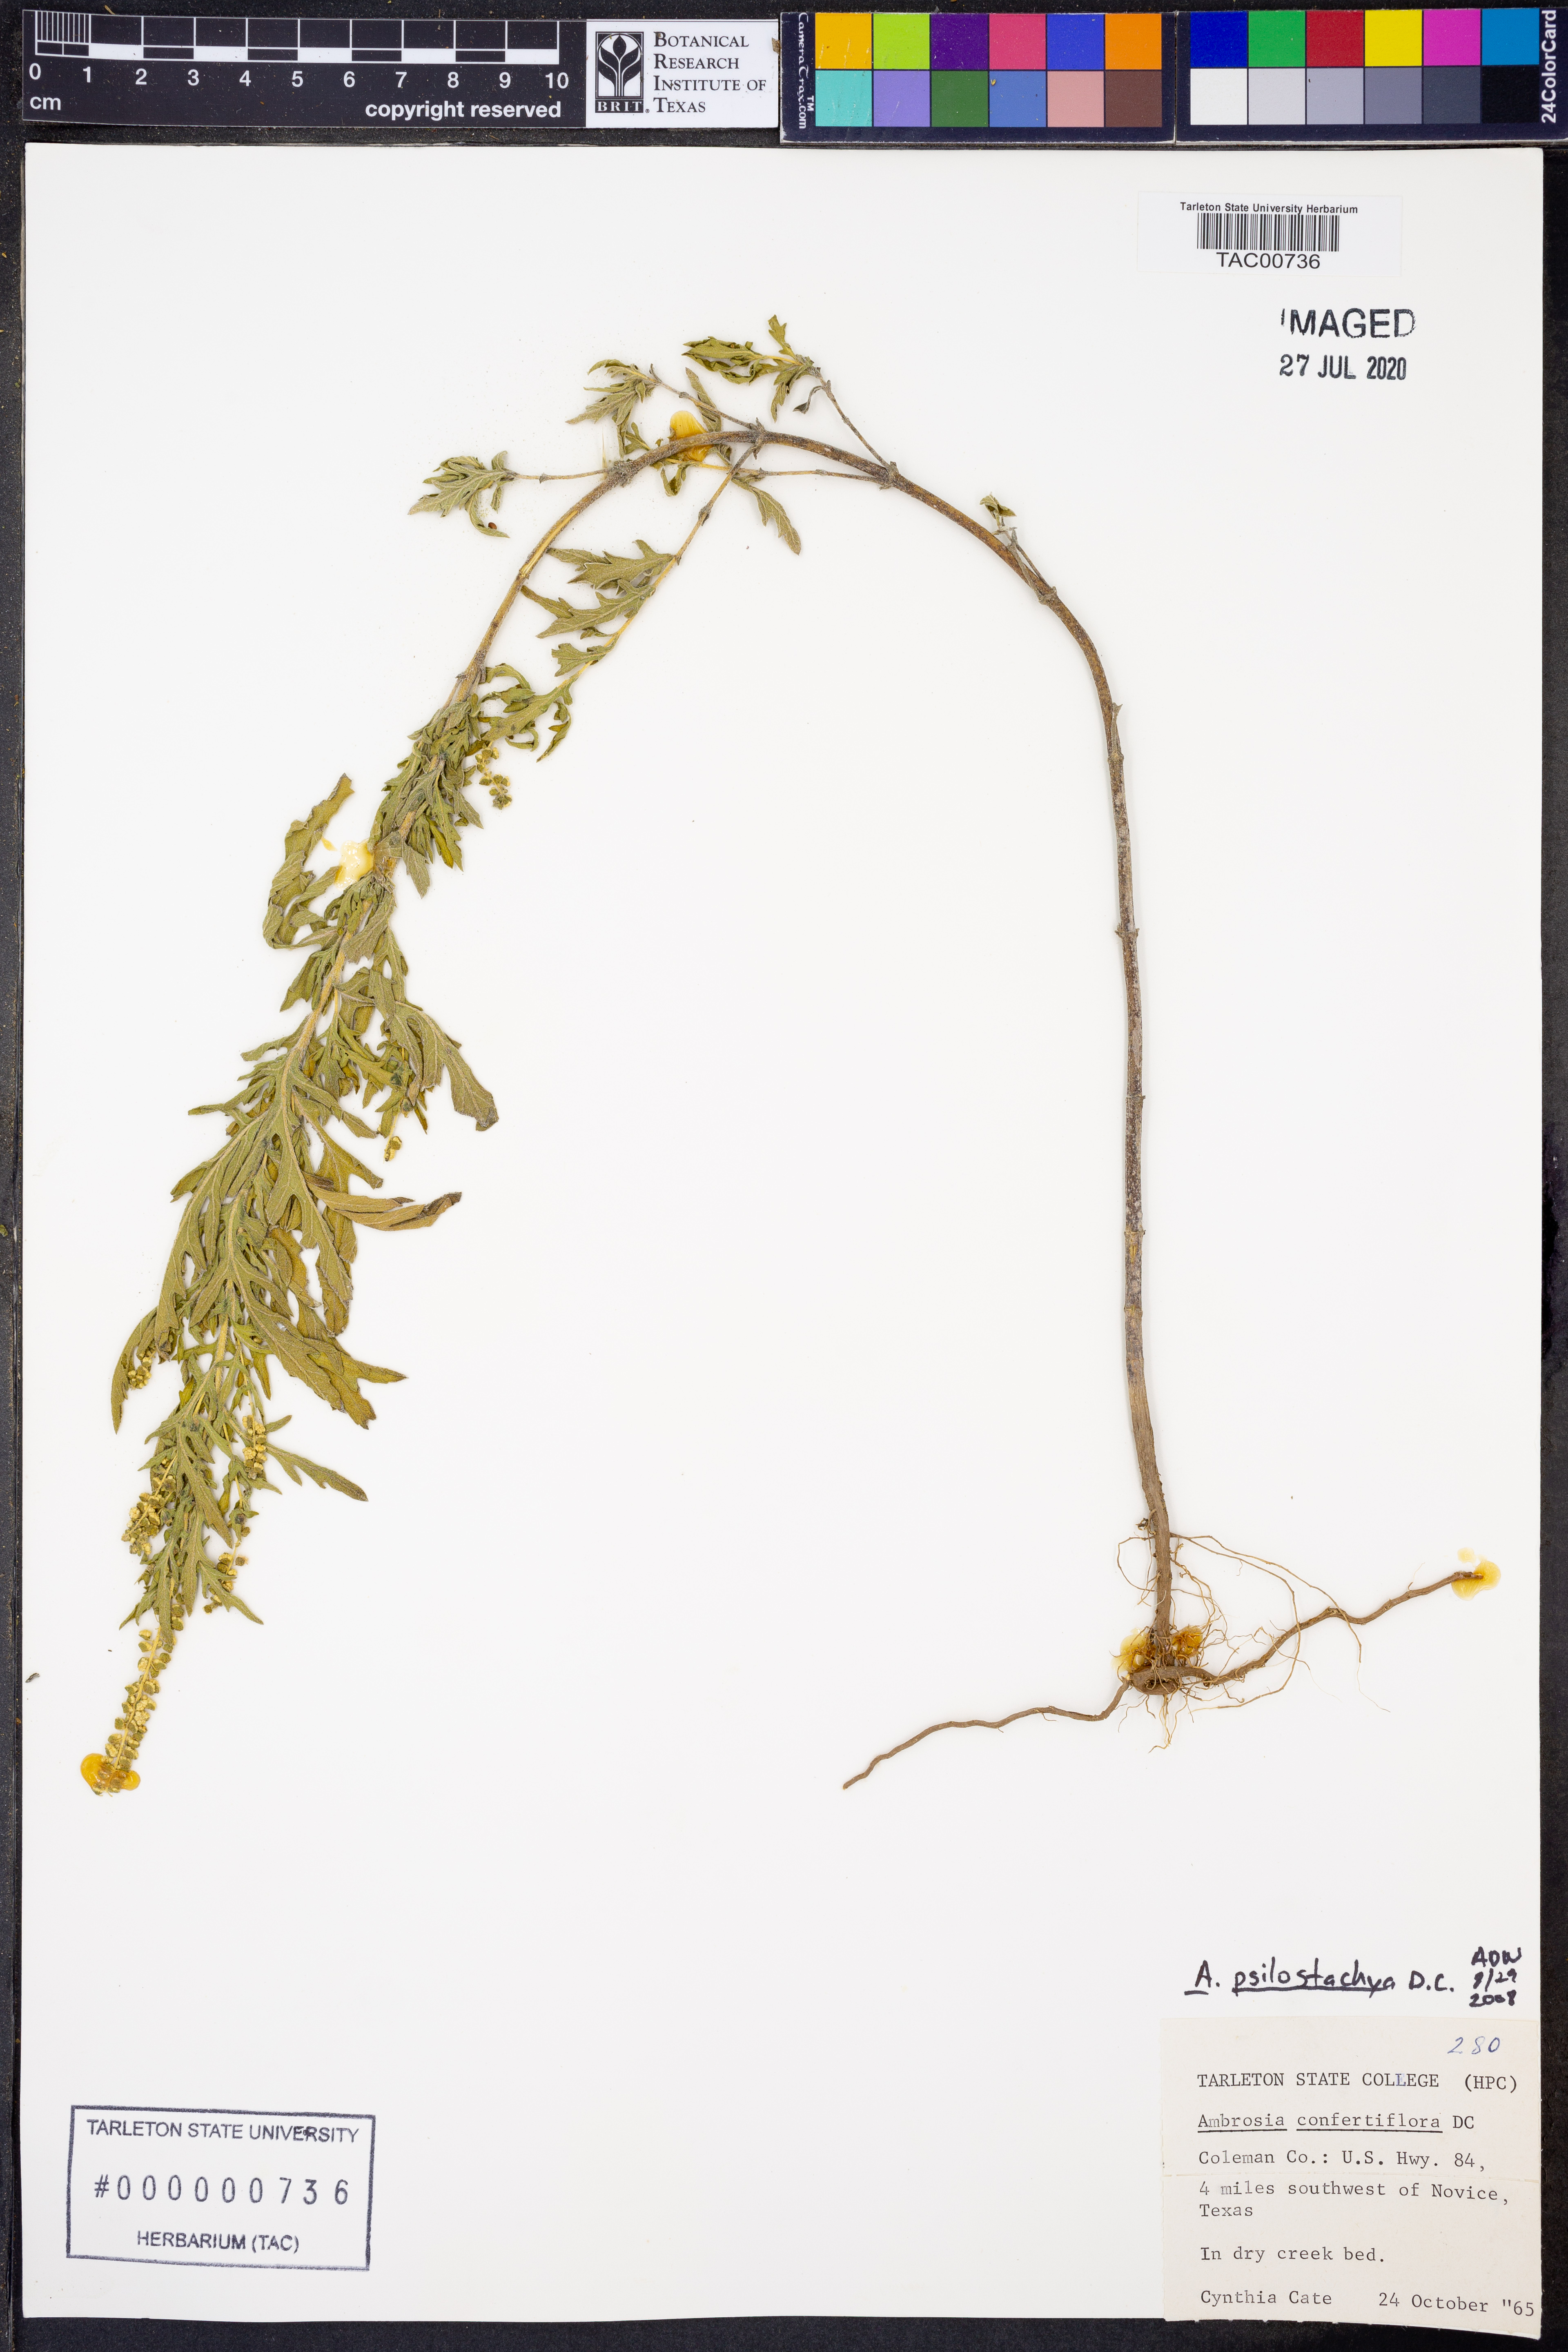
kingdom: Plantae
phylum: Tracheophyta
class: Magnoliopsida
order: Asterales
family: Asteraceae
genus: Ambrosia
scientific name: Ambrosia psilostachya
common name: Perennial ragweed
